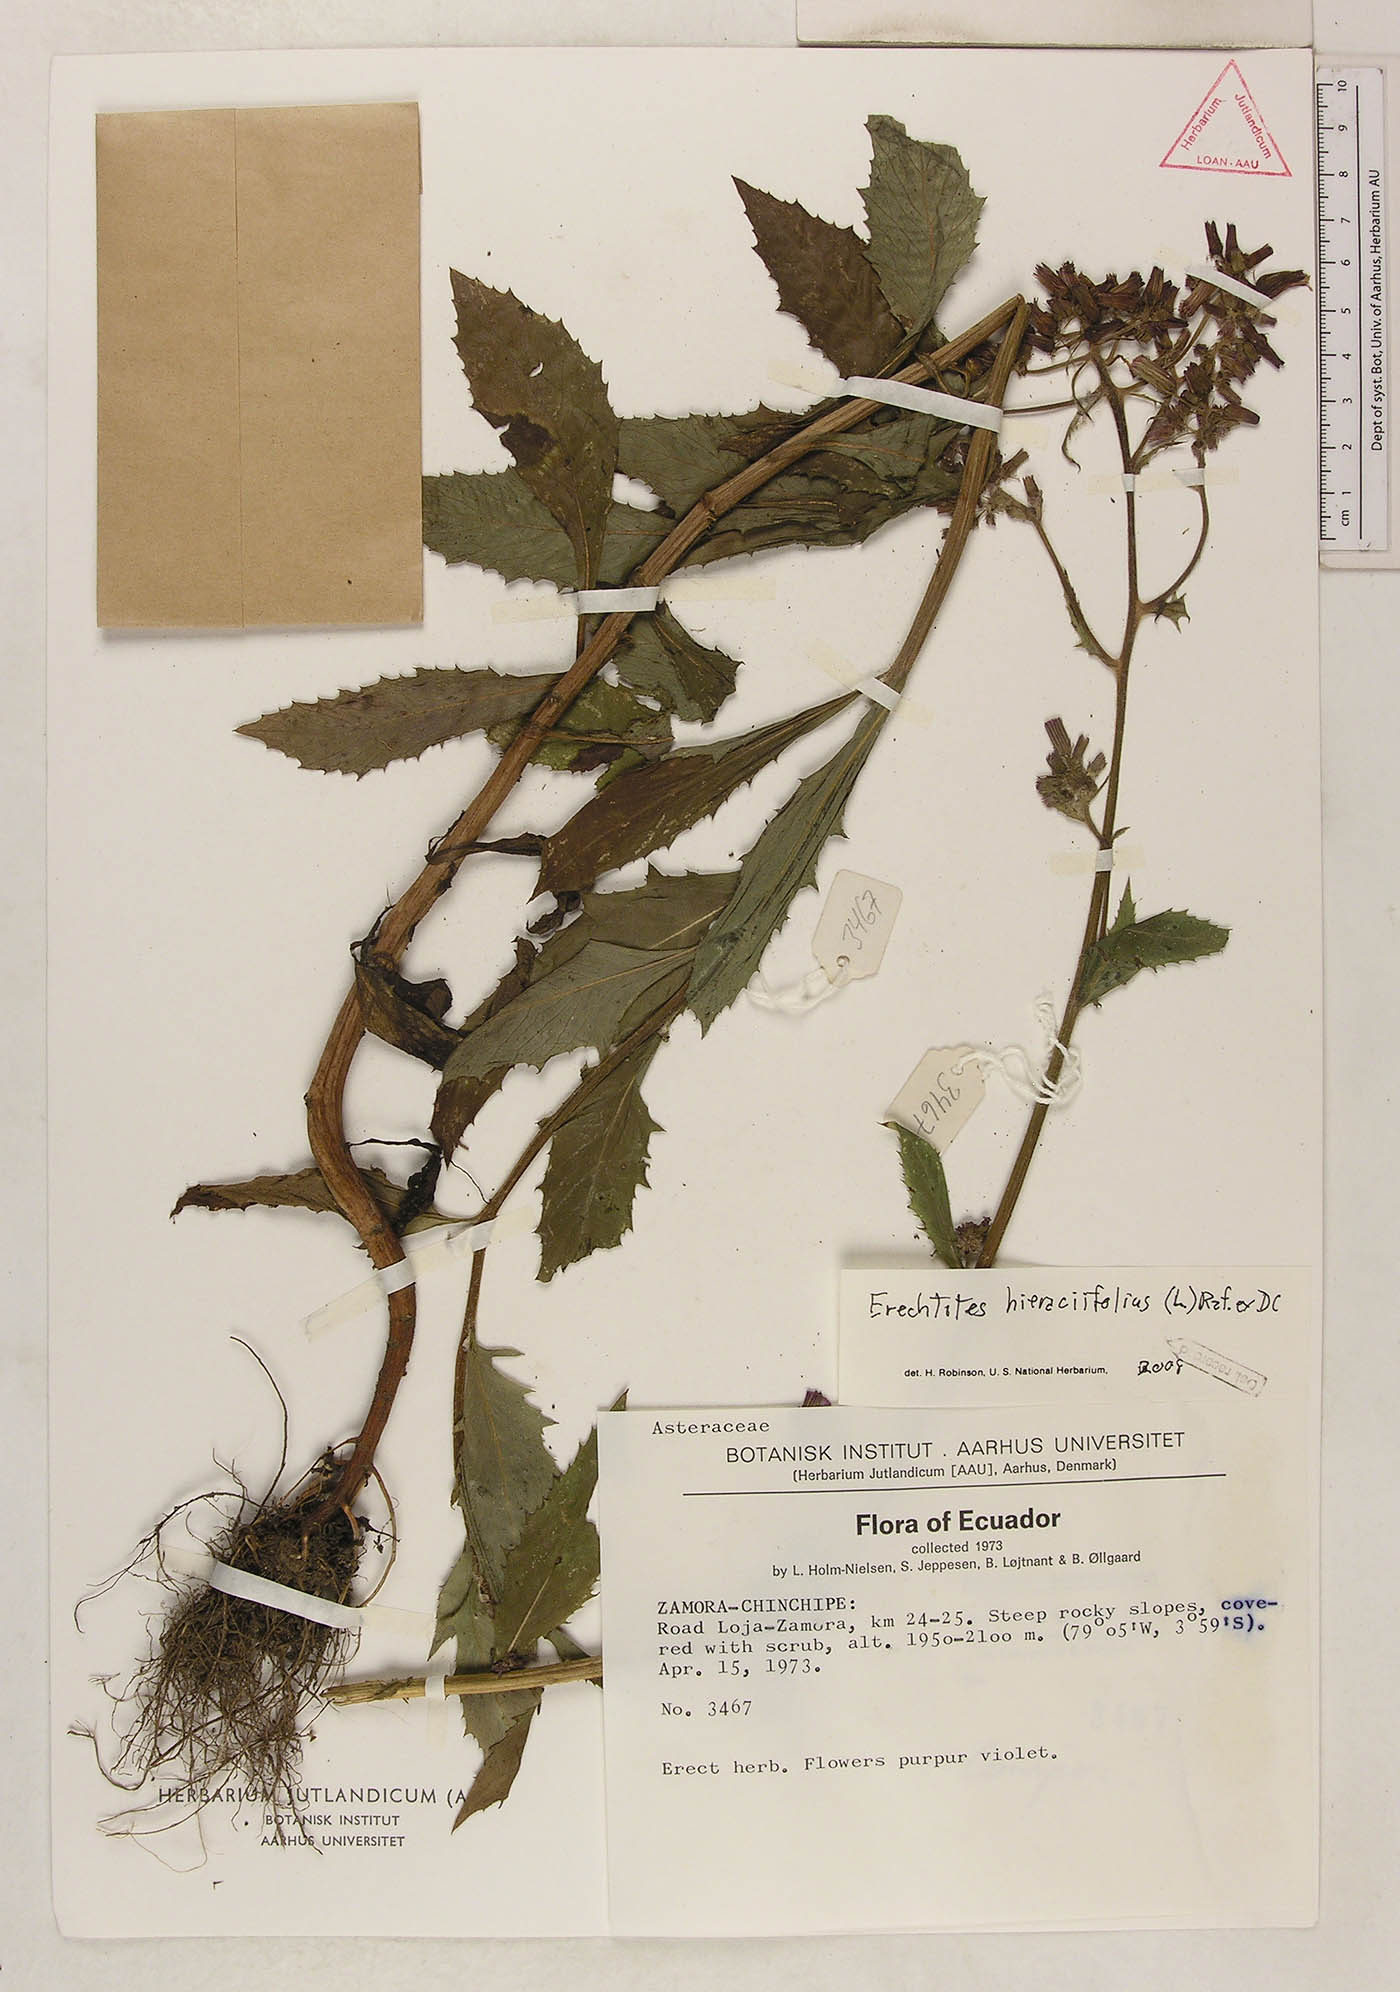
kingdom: Plantae
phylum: Tracheophyta
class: Magnoliopsida
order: Asterales
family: Asteraceae
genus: Erechtites
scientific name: Erechtites hieraciifolius
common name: American burnweed
